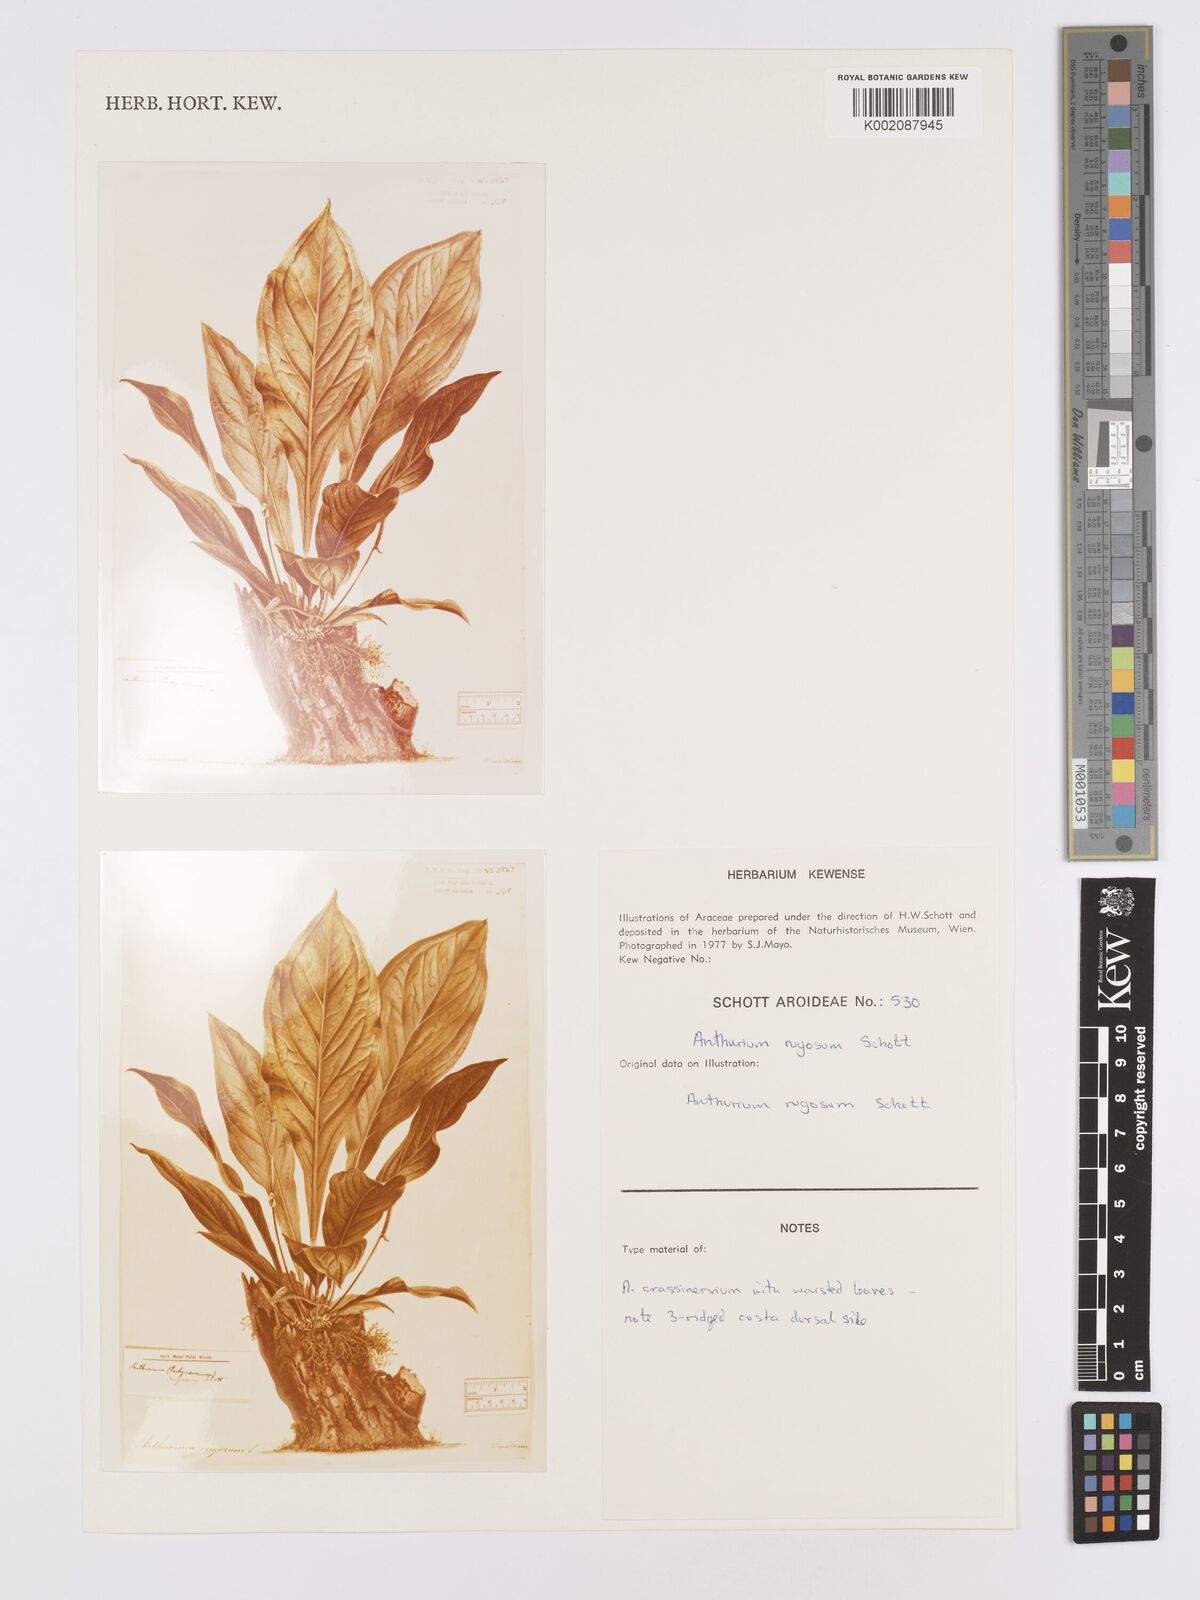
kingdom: Plantae
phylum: Tracheophyta
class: Liliopsida
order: Alismatales
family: Araceae
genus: Anthurium
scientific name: Anthurium crassinervium
